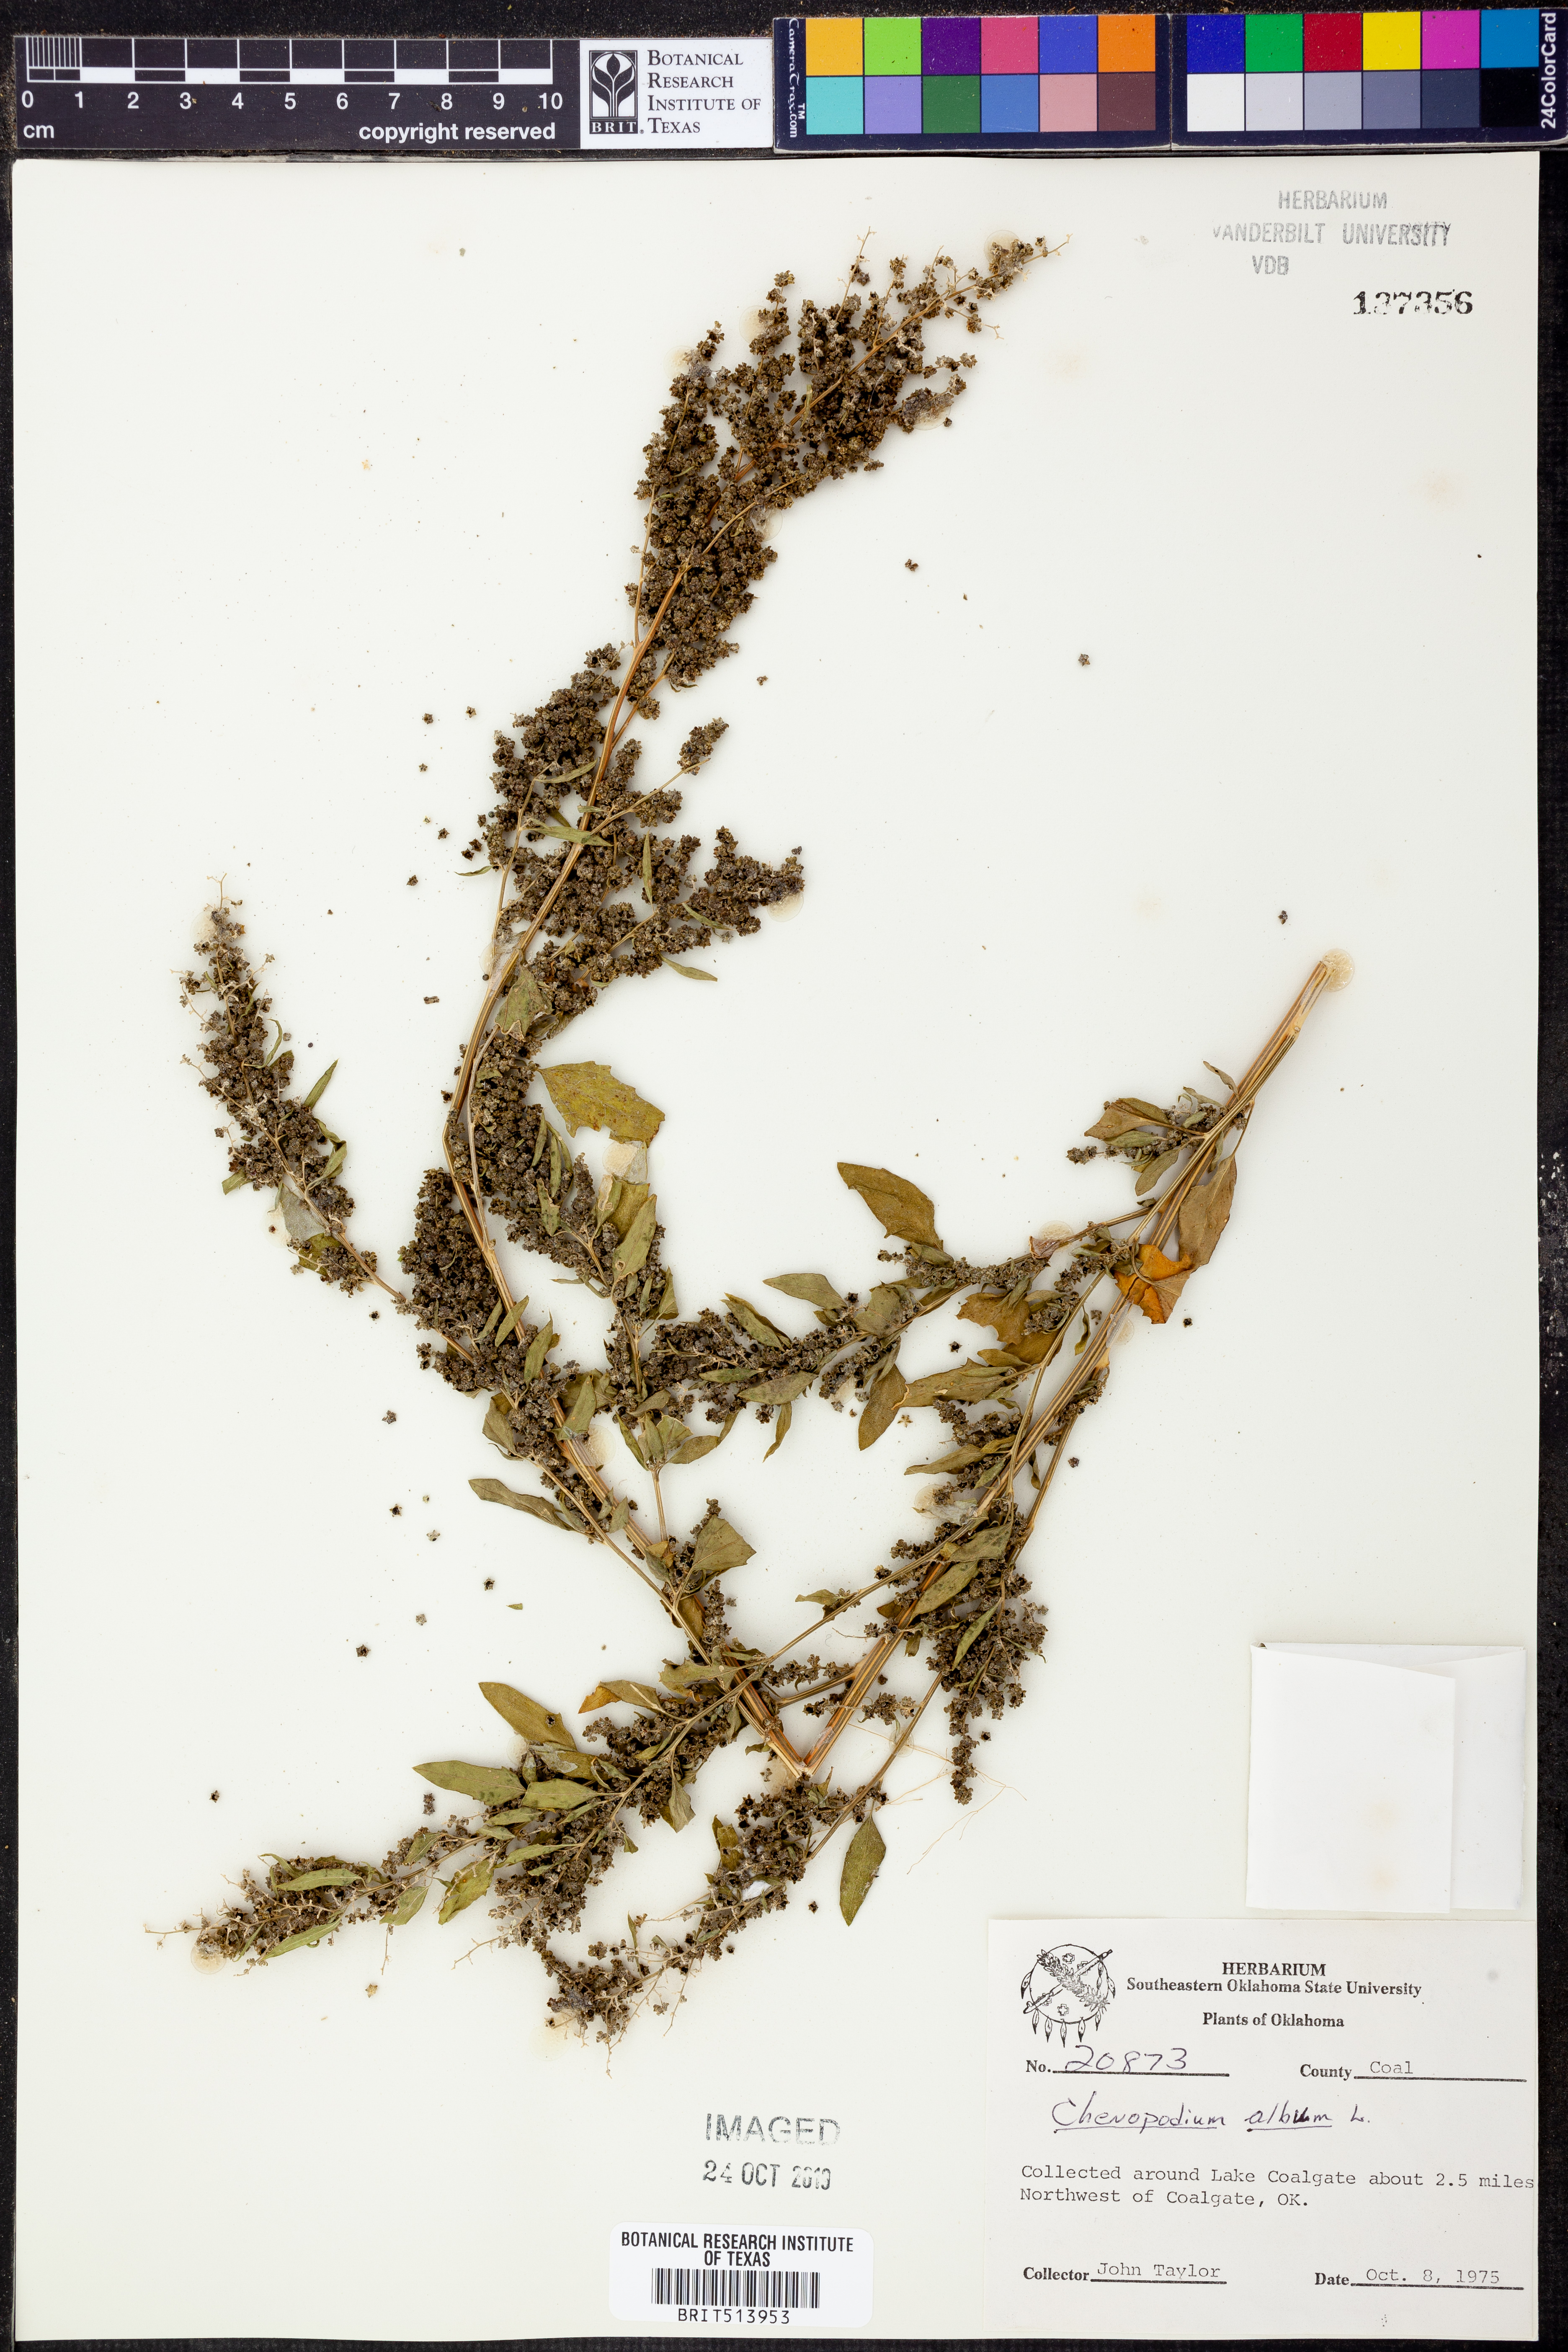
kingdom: Plantae
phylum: Tracheophyta
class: Magnoliopsida
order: Caryophyllales
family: Amaranthaceae
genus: Chenopodium
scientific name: Chenopodium album
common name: Fat-hen
